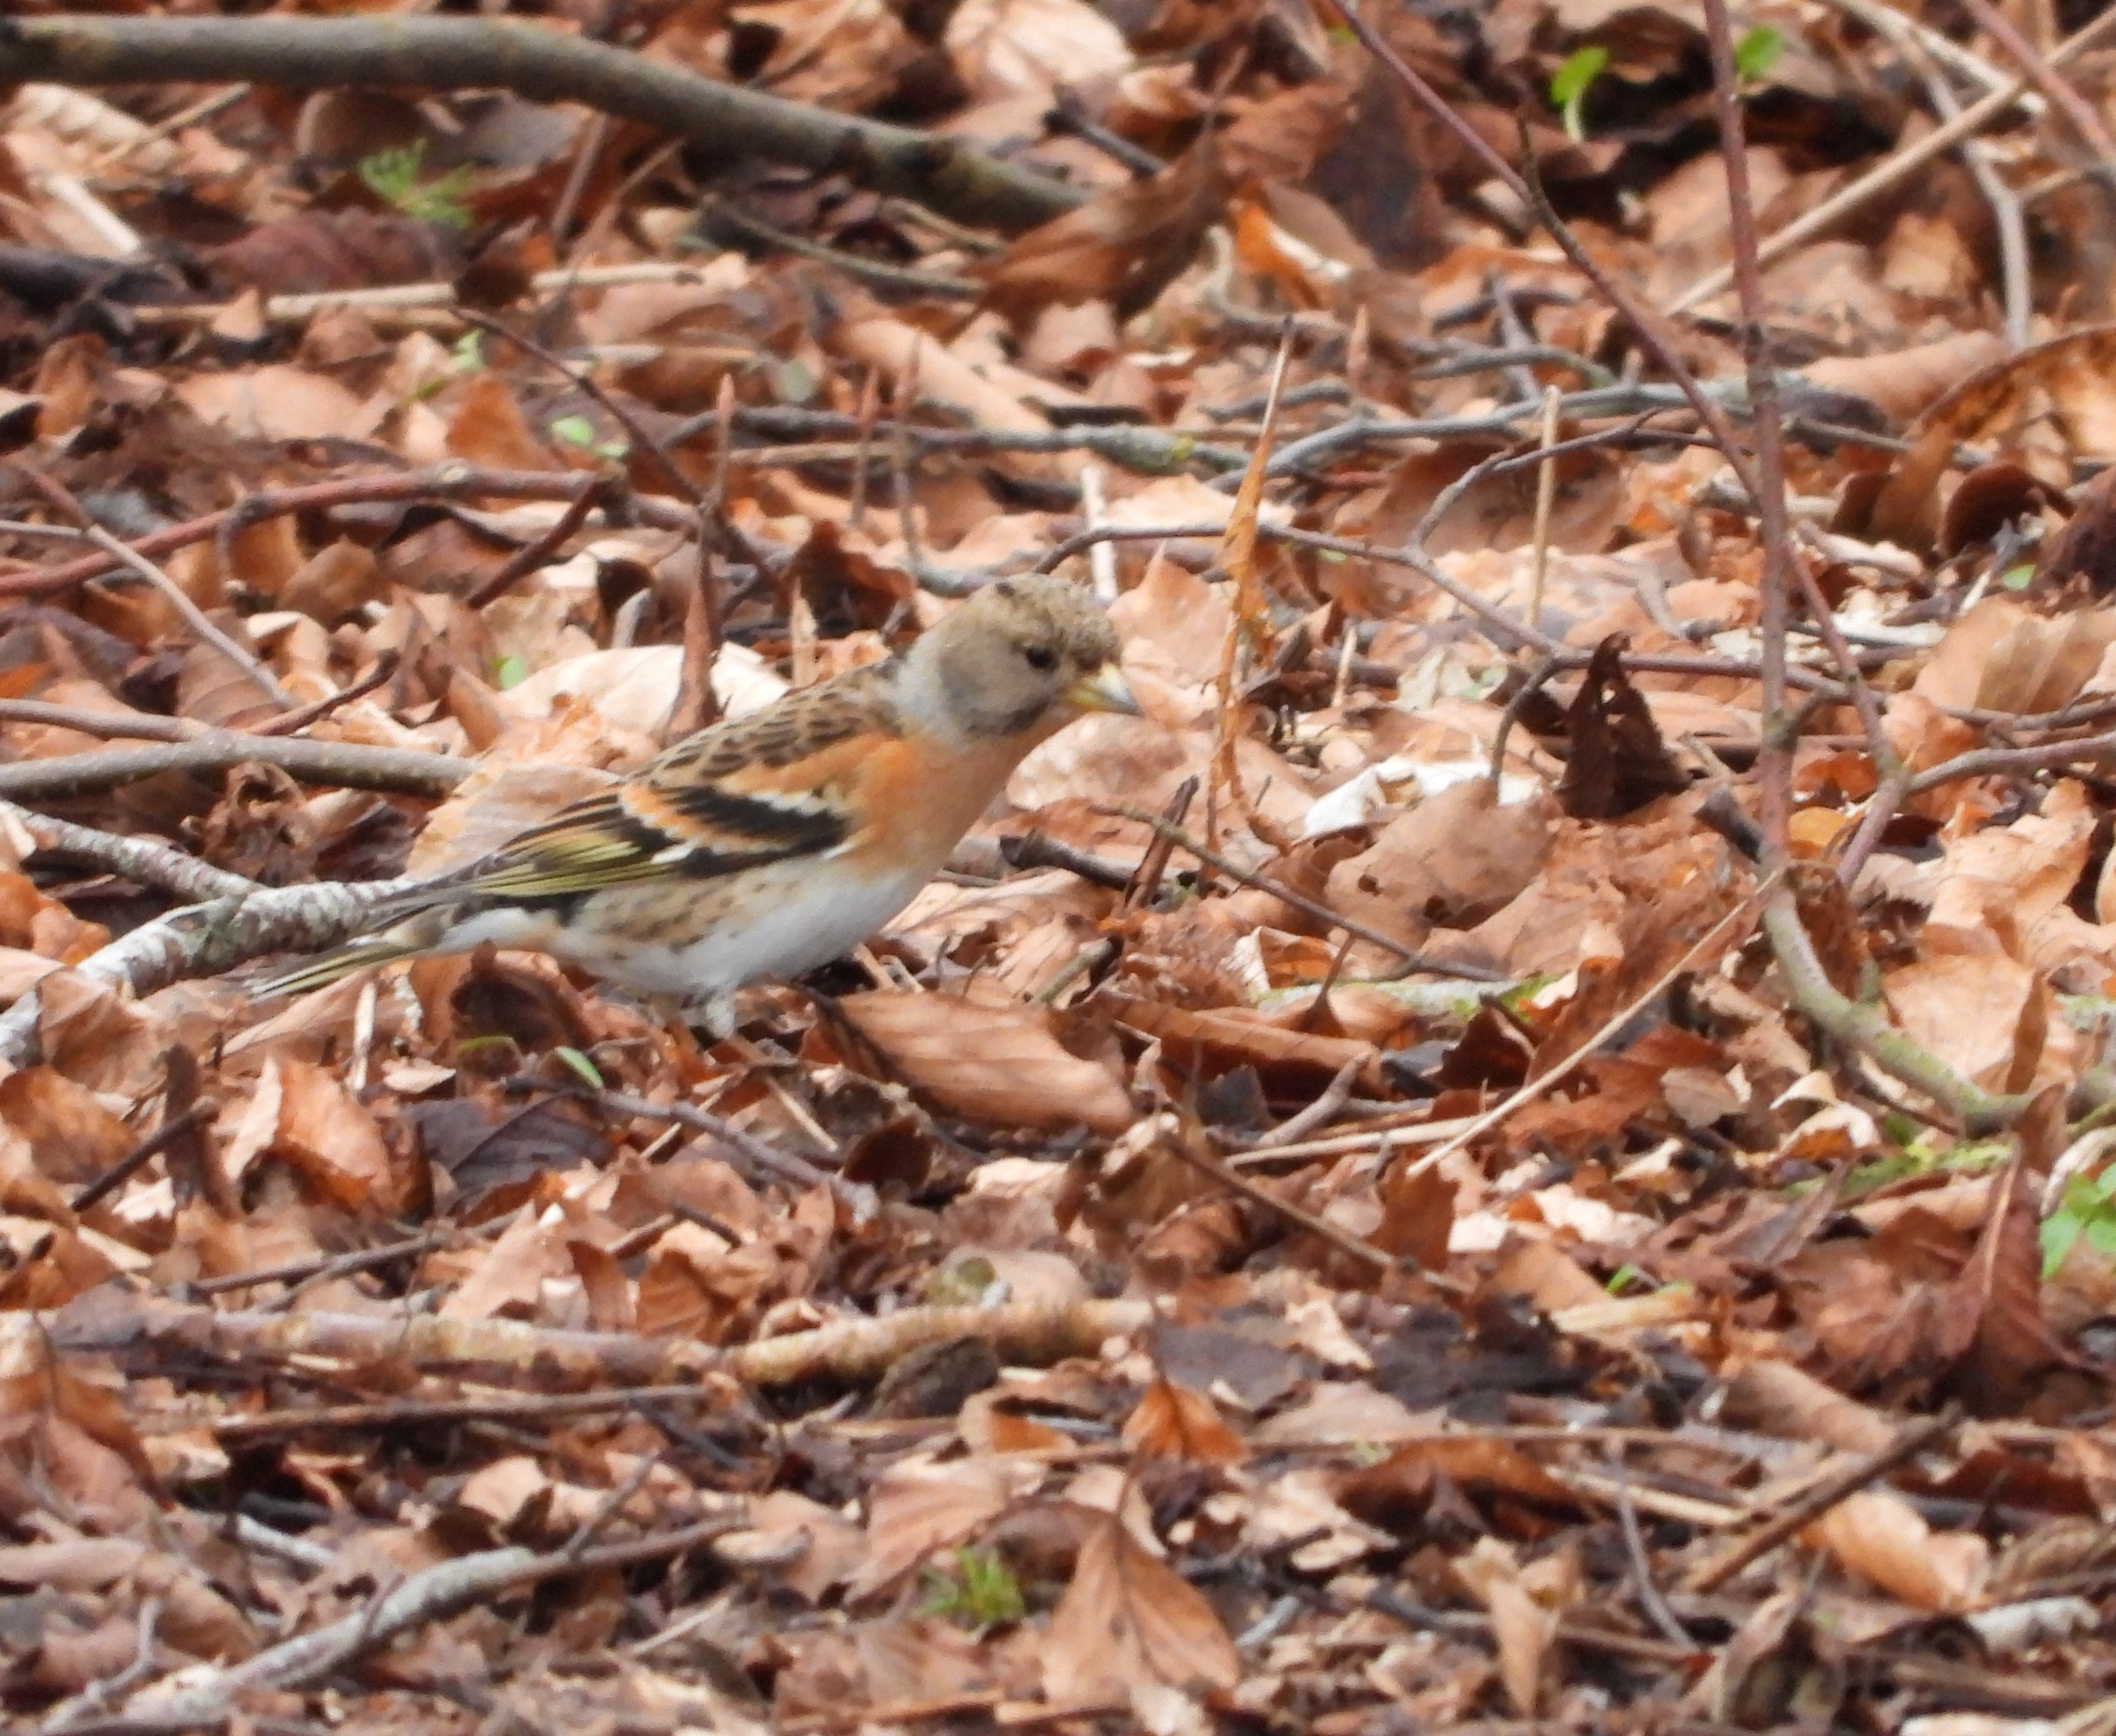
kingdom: Animalia
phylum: Chordata
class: Aves
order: Passeriformes
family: Fringillidae
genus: Fringilla
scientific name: Fringilla montifringilla
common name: Kvækerfinke
